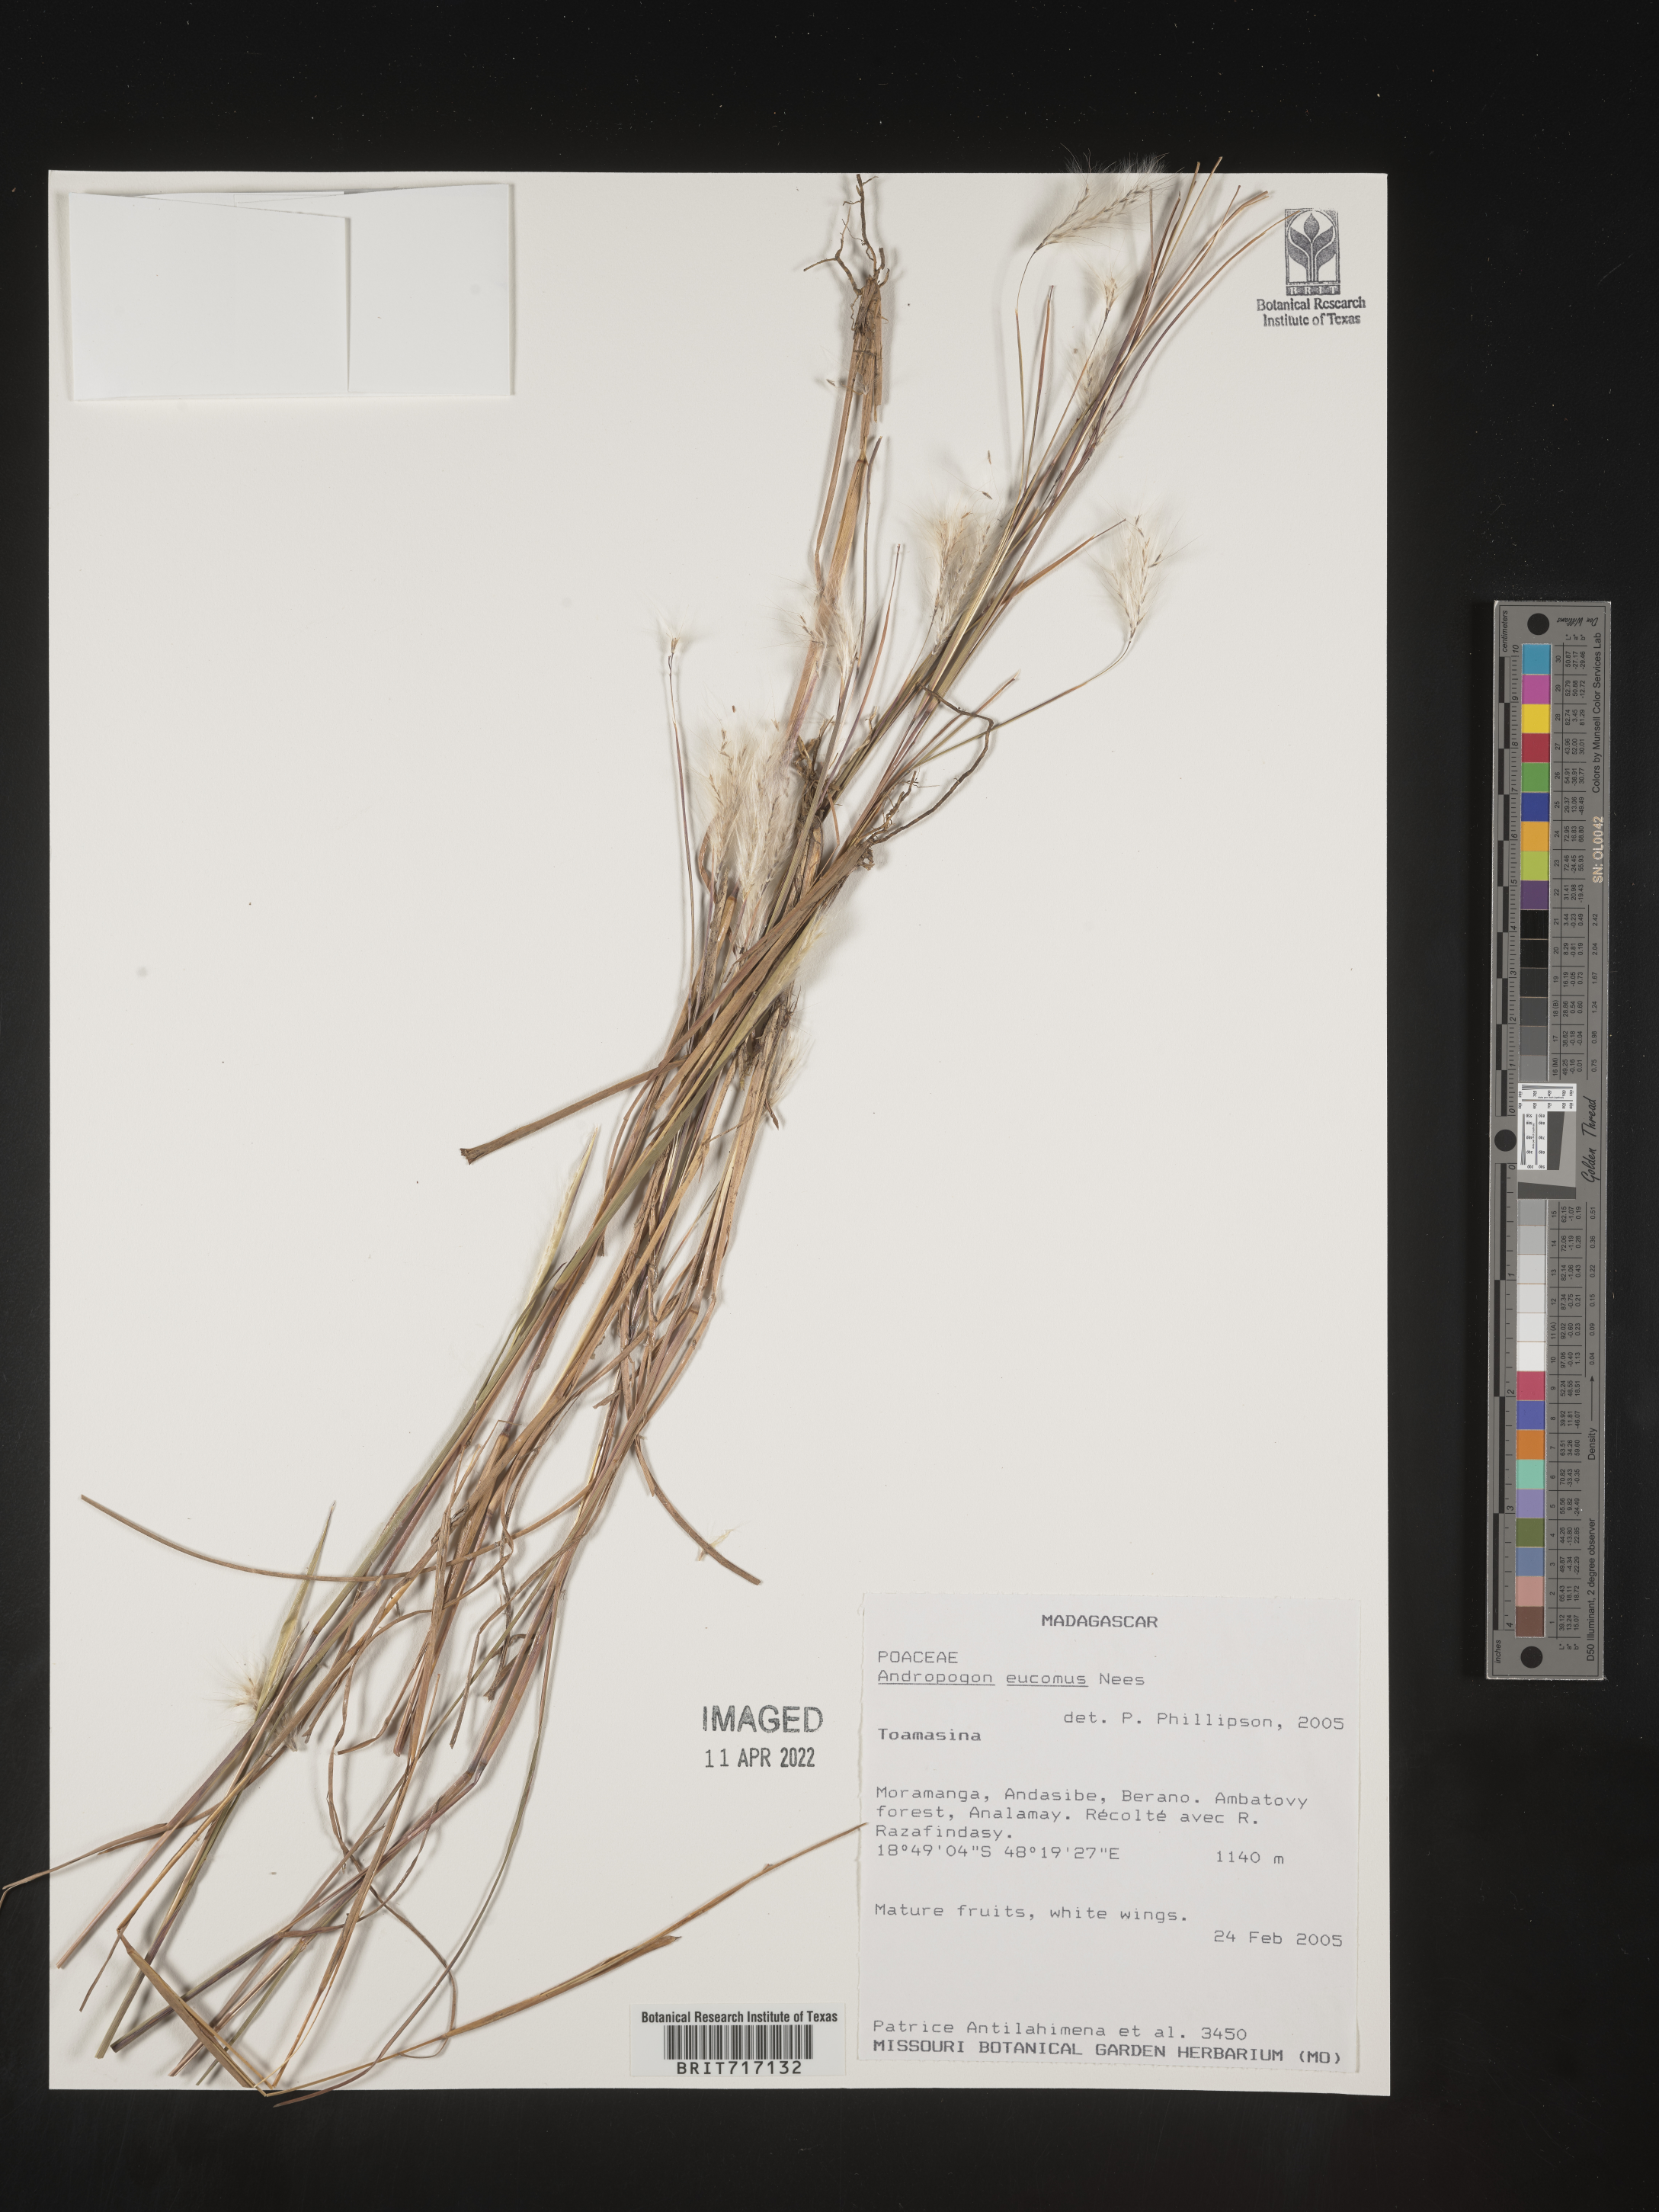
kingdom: Plantae
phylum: Tracheophyta
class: Liliopsida
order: Poales
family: Poaceae
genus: Andropogon
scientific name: Andropogon
